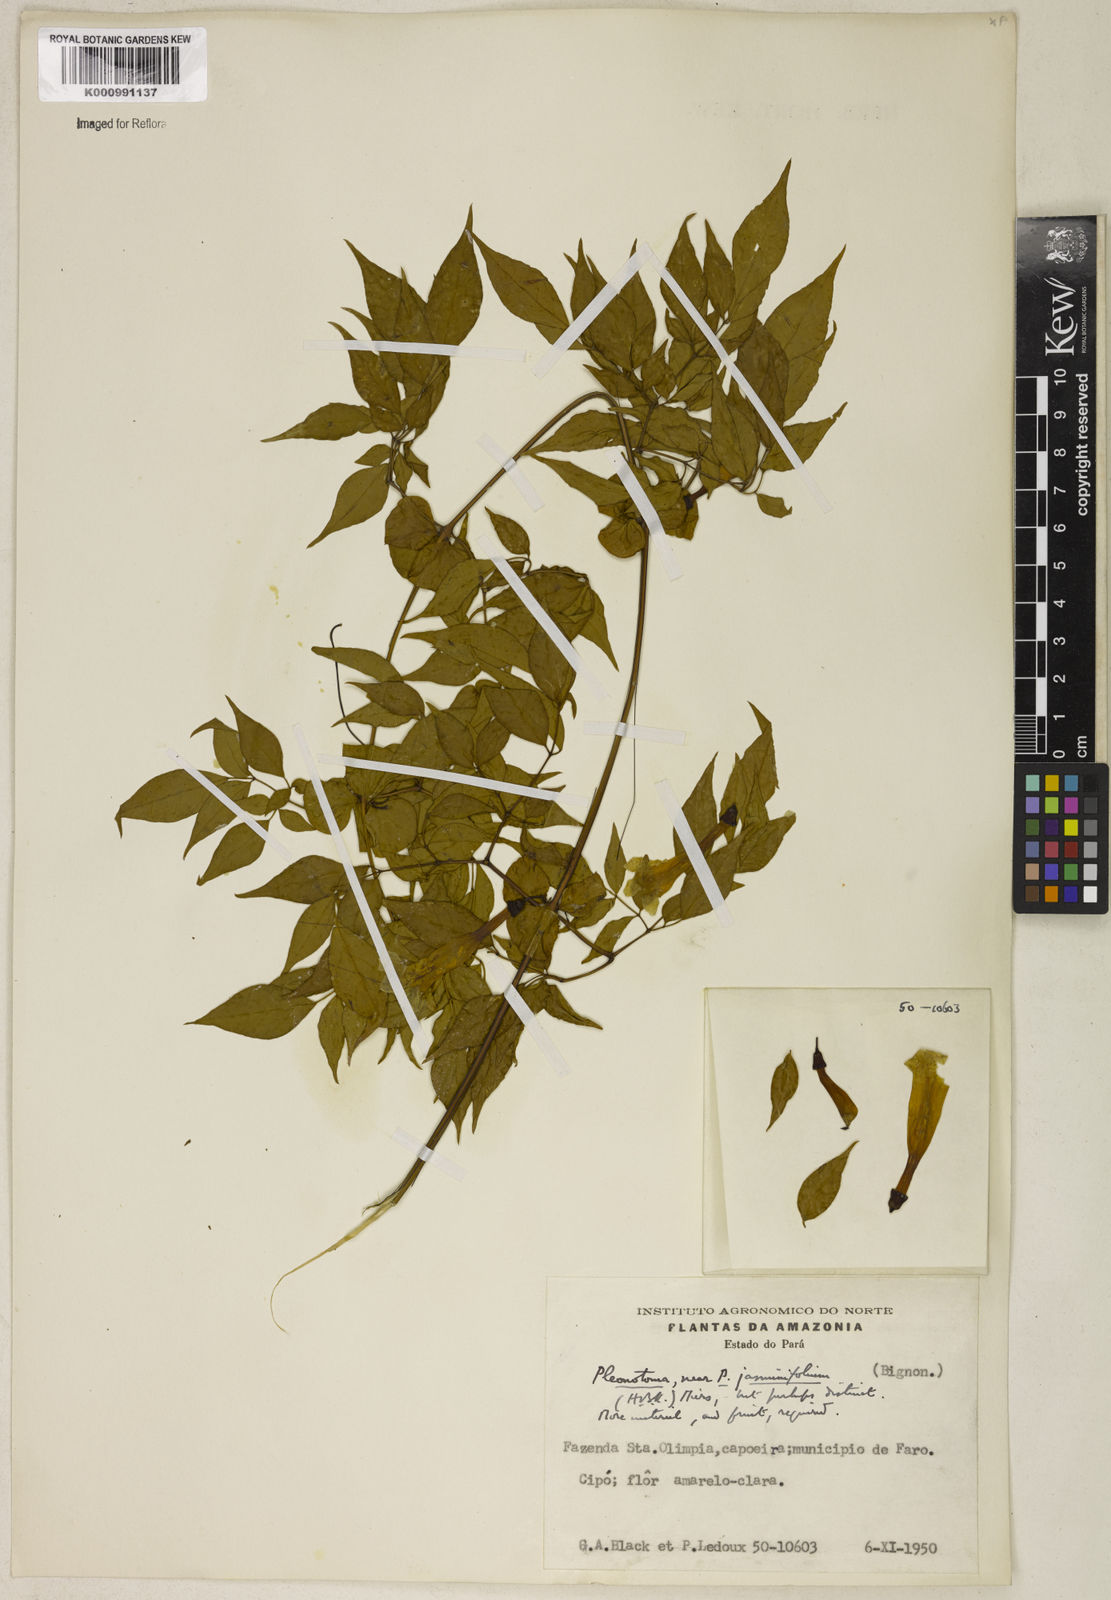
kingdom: Plantae
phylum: Tracheophyta
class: Magnoliopsida
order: Lamiales
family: Bignoniaceae
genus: Pleonotoma
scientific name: Pleonotoma jasminifolia
